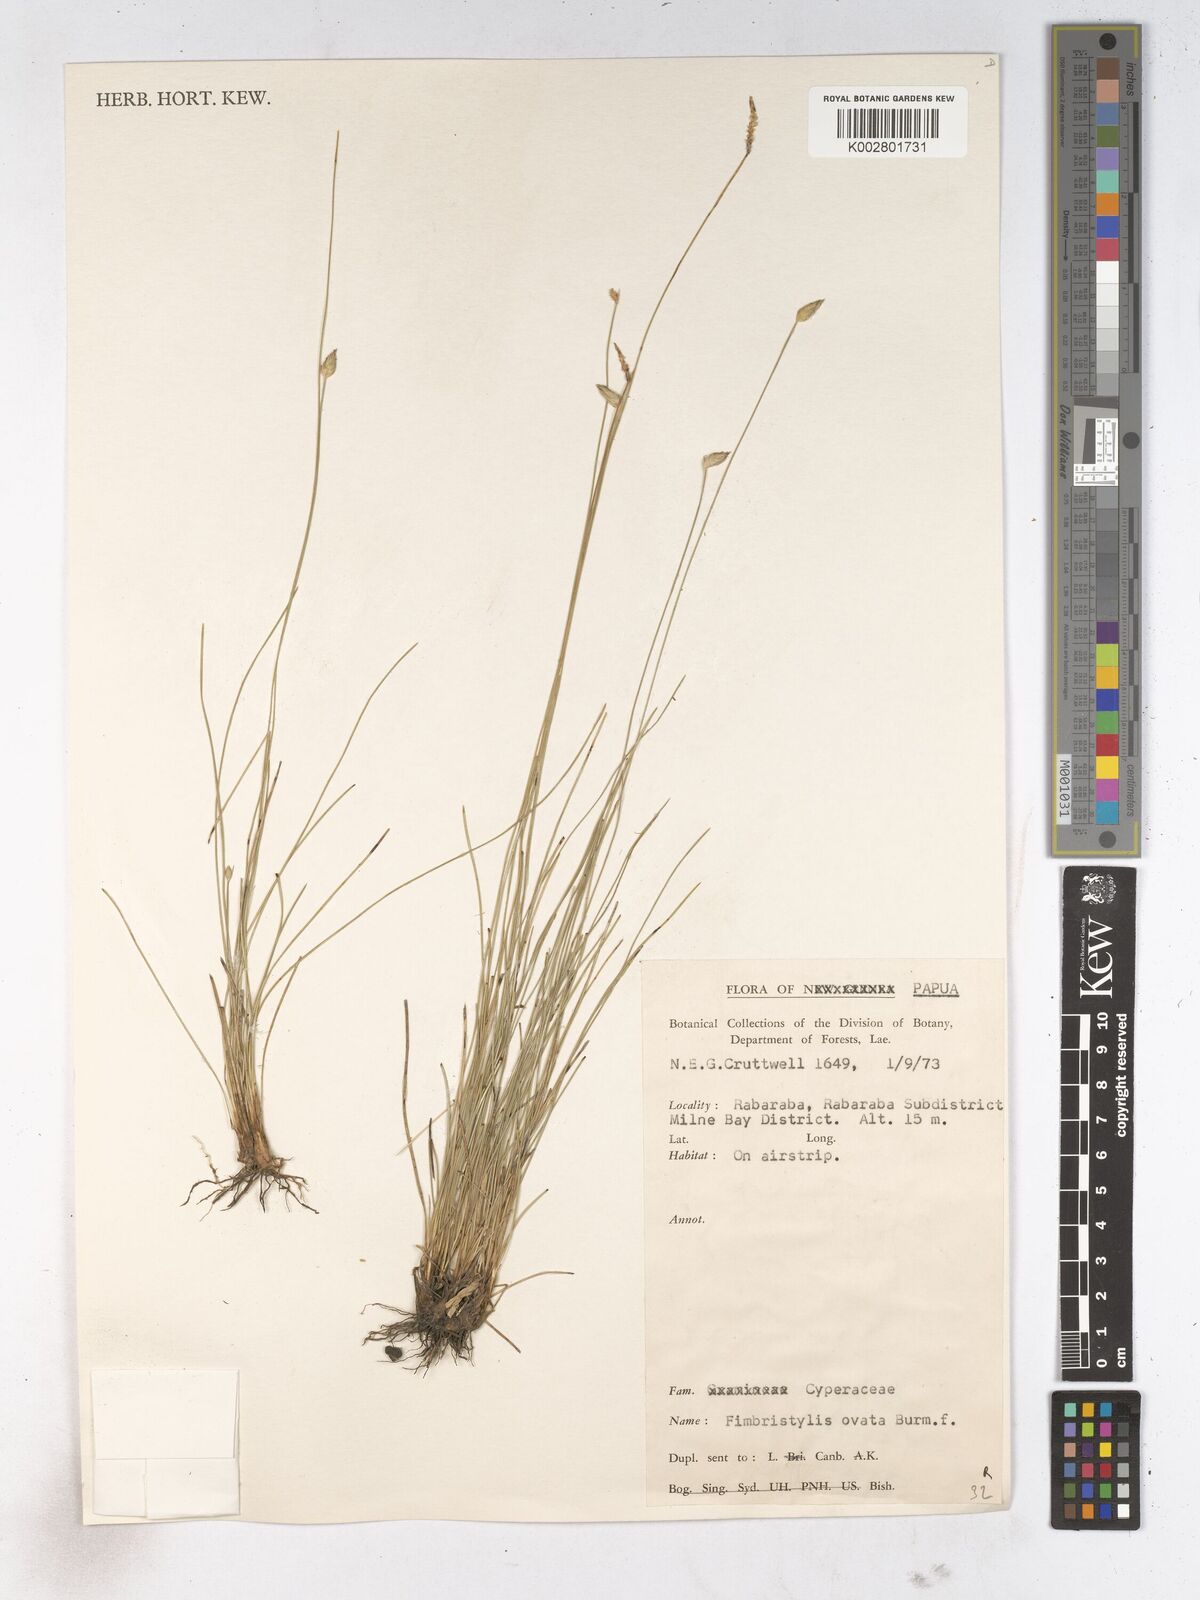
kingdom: Plantae
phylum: Tracheophyta
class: Liliopsida
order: Poales
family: Cyperaceae
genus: Abildgaardia
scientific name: Abildgaardia ovata
